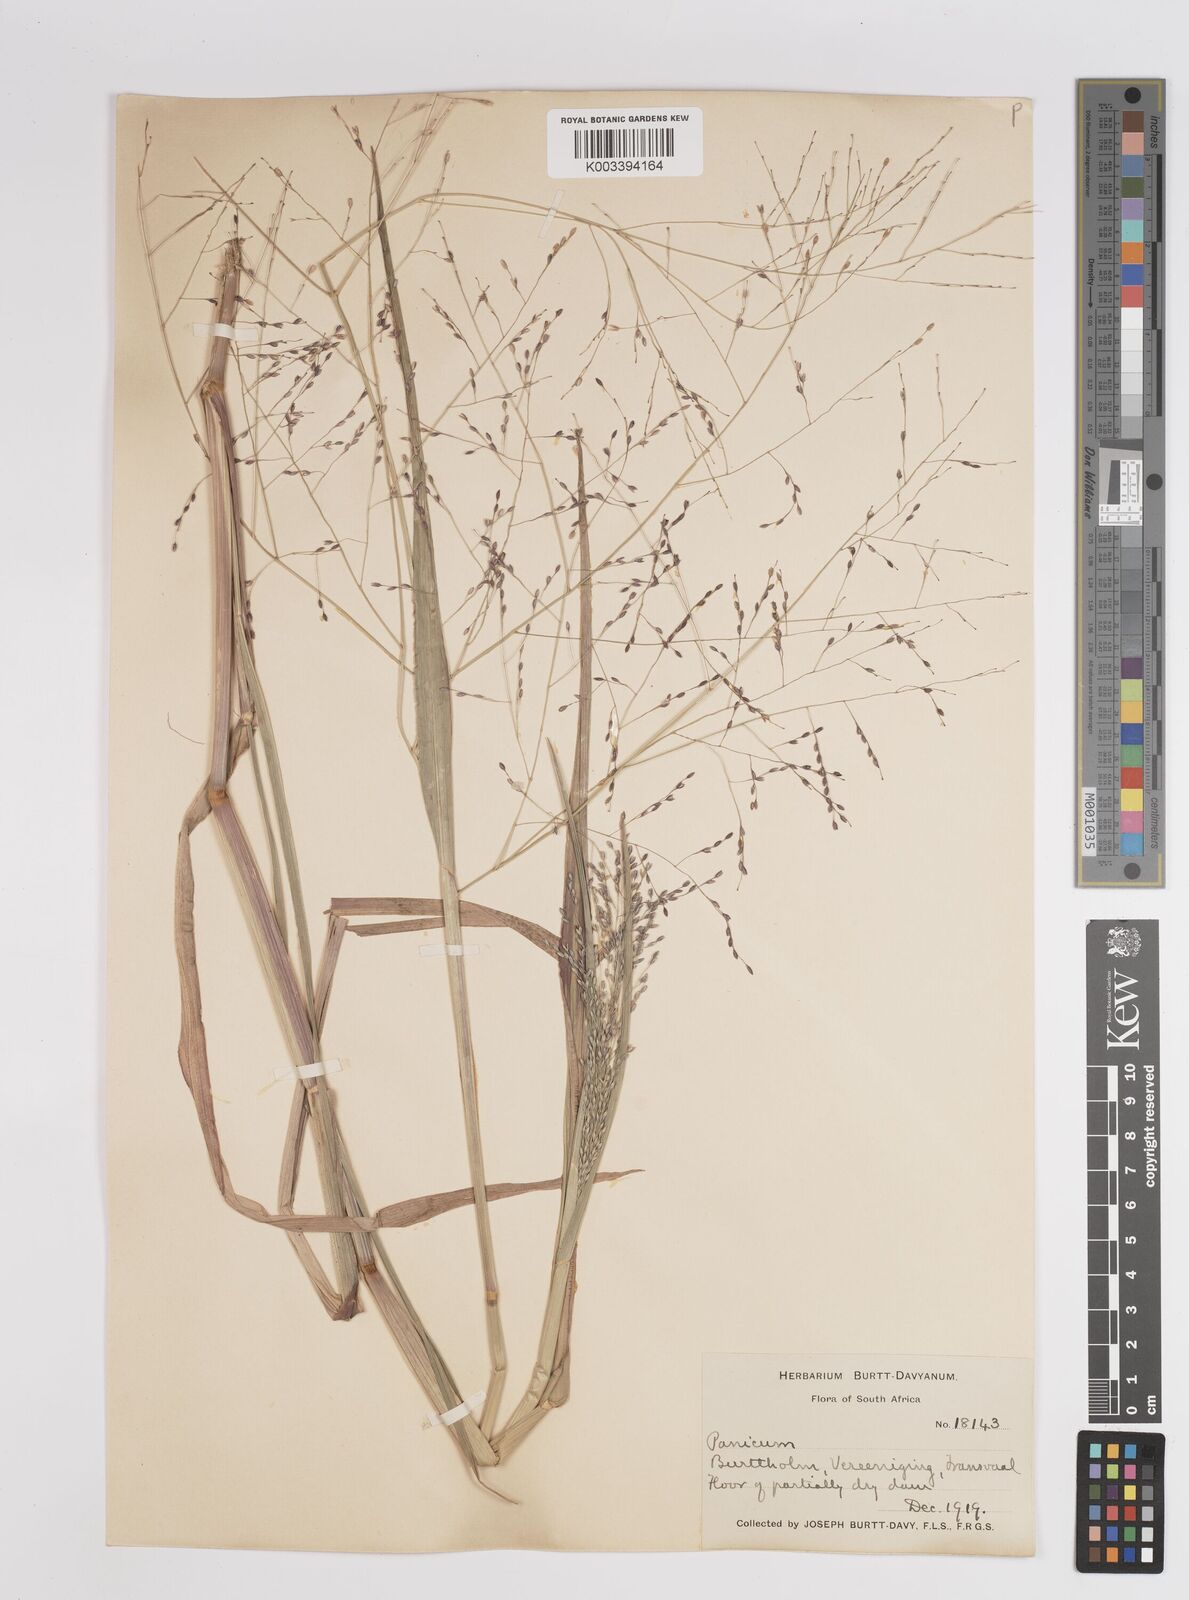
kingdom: Plantae
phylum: Tracheophyta
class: Liliopsida
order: Poales
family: Poaceae
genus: Panicum
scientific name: Panicum schinzii
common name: Sweet grass
